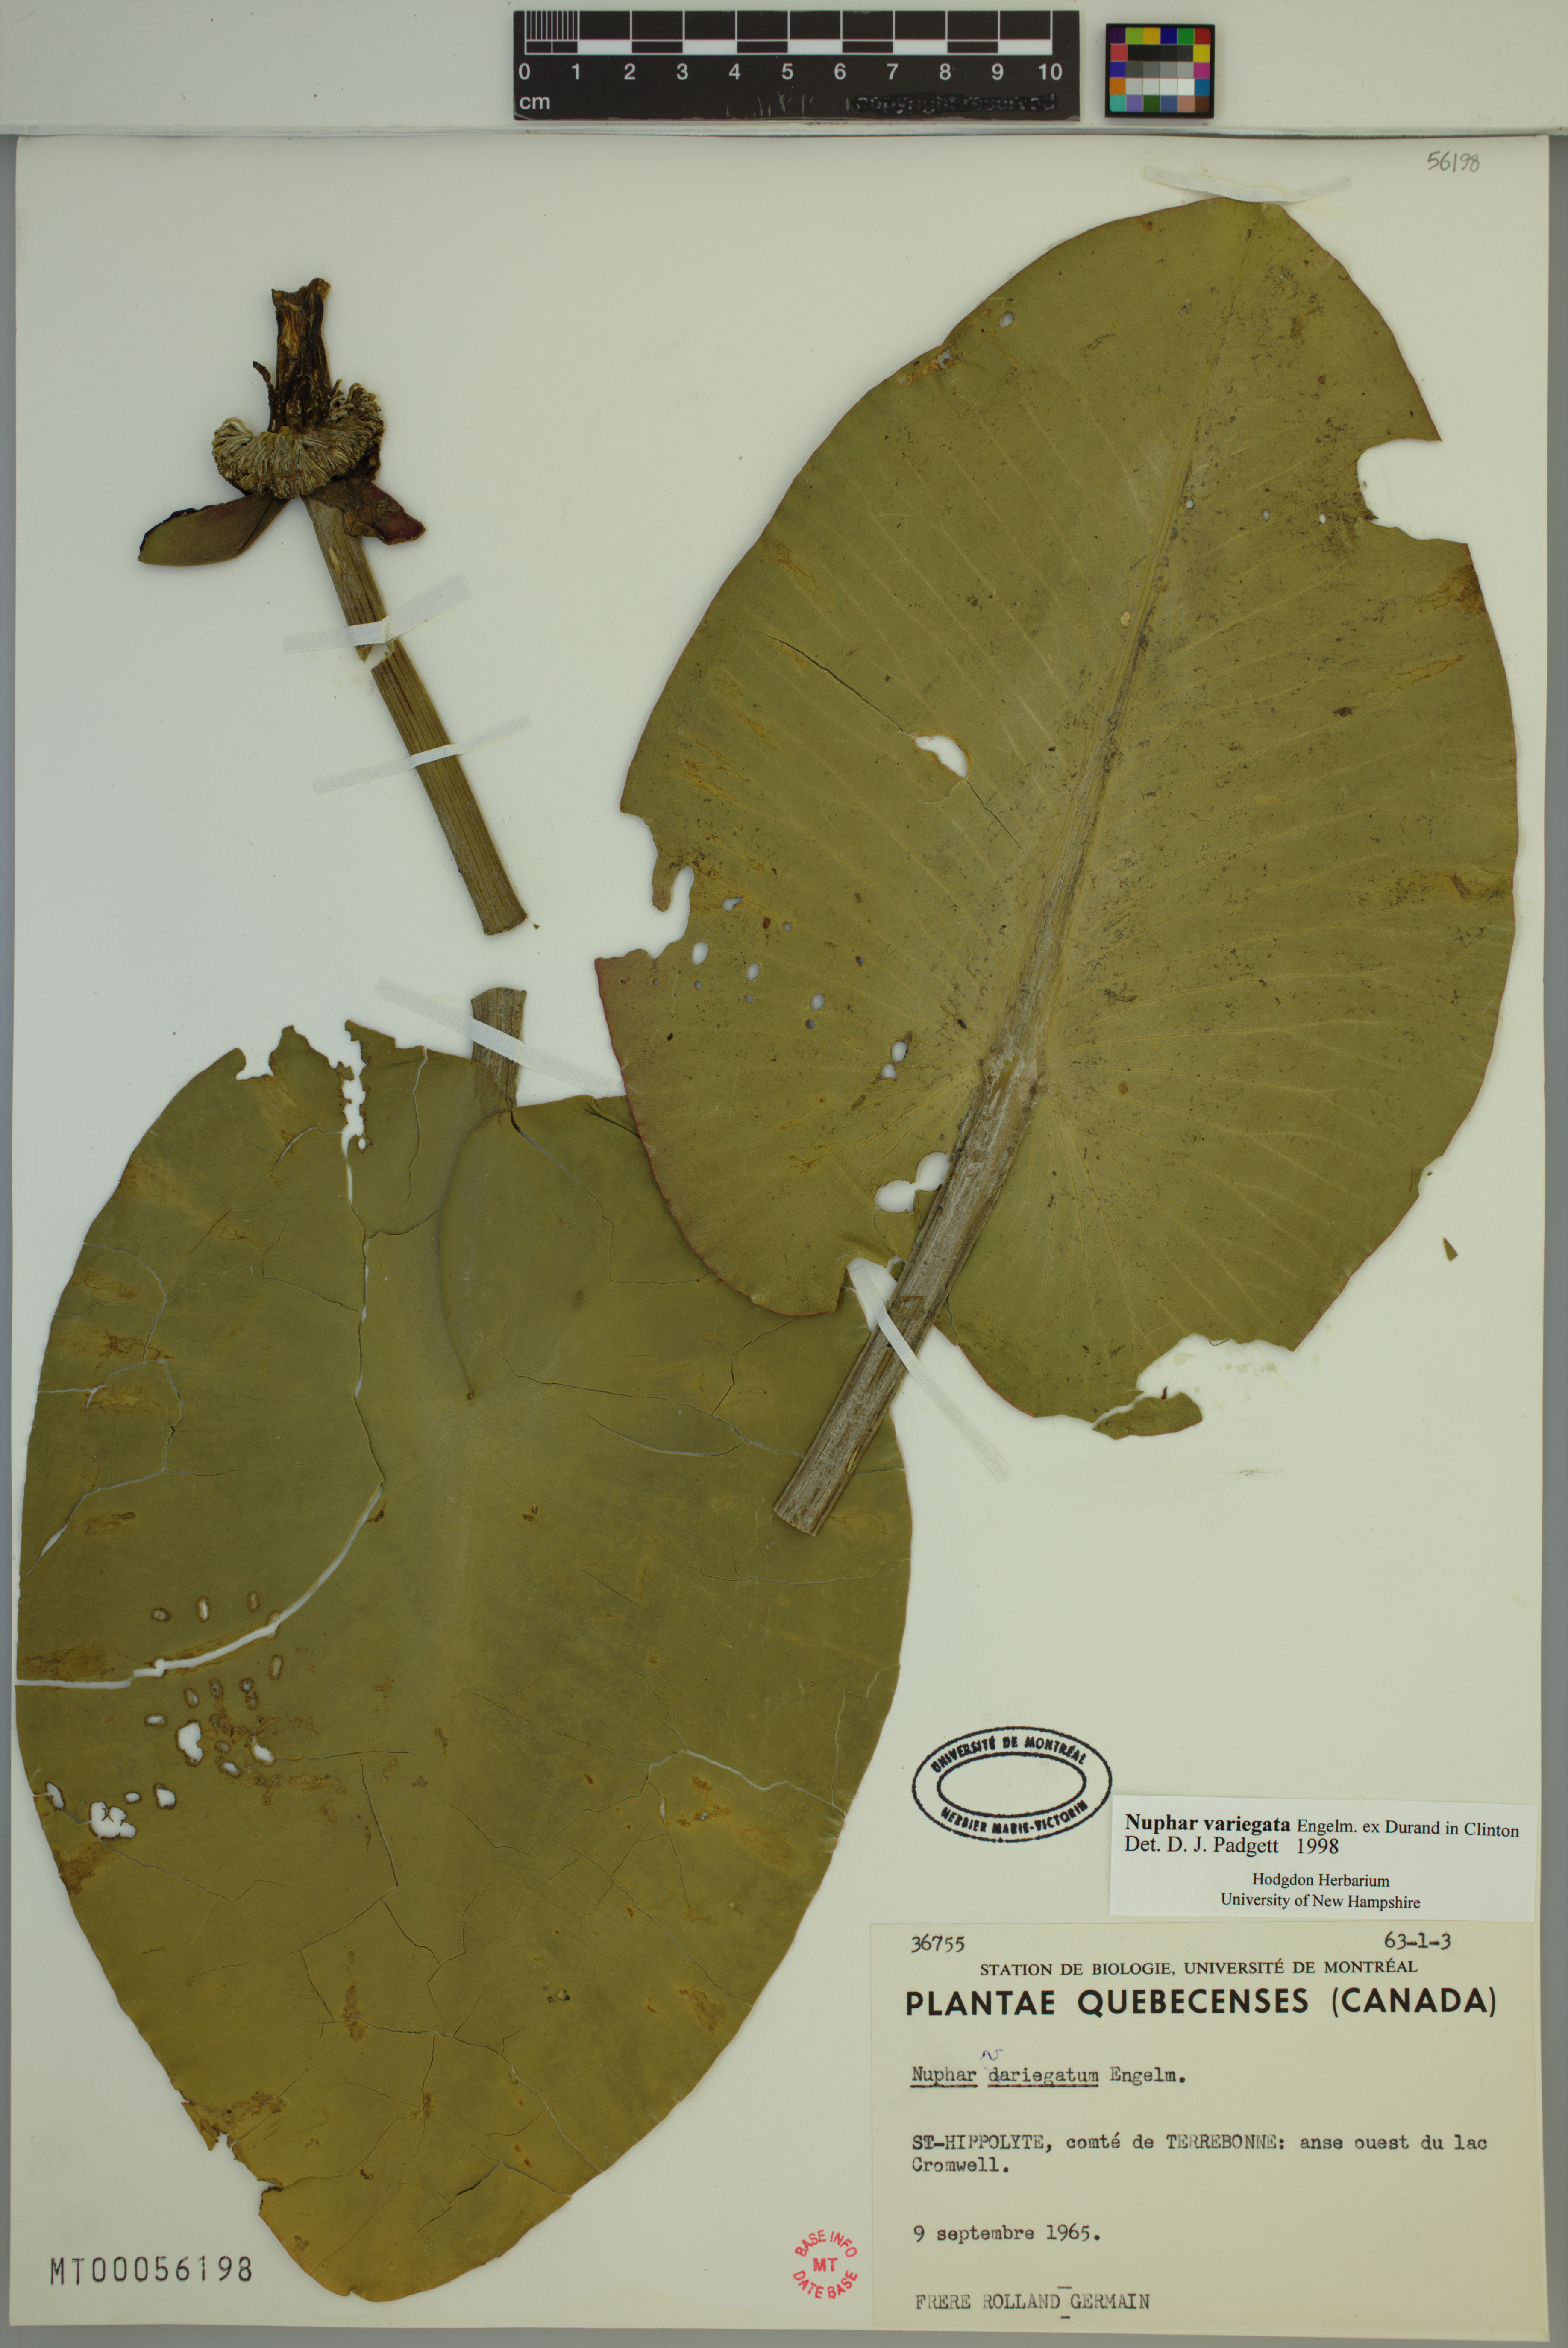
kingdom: Plantae
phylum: Tracheophyta
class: Magnoliopsida
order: Nymphaeales
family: Nymphaeaceae
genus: Nuphar
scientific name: Nuphar variegata
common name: Beaver-root
